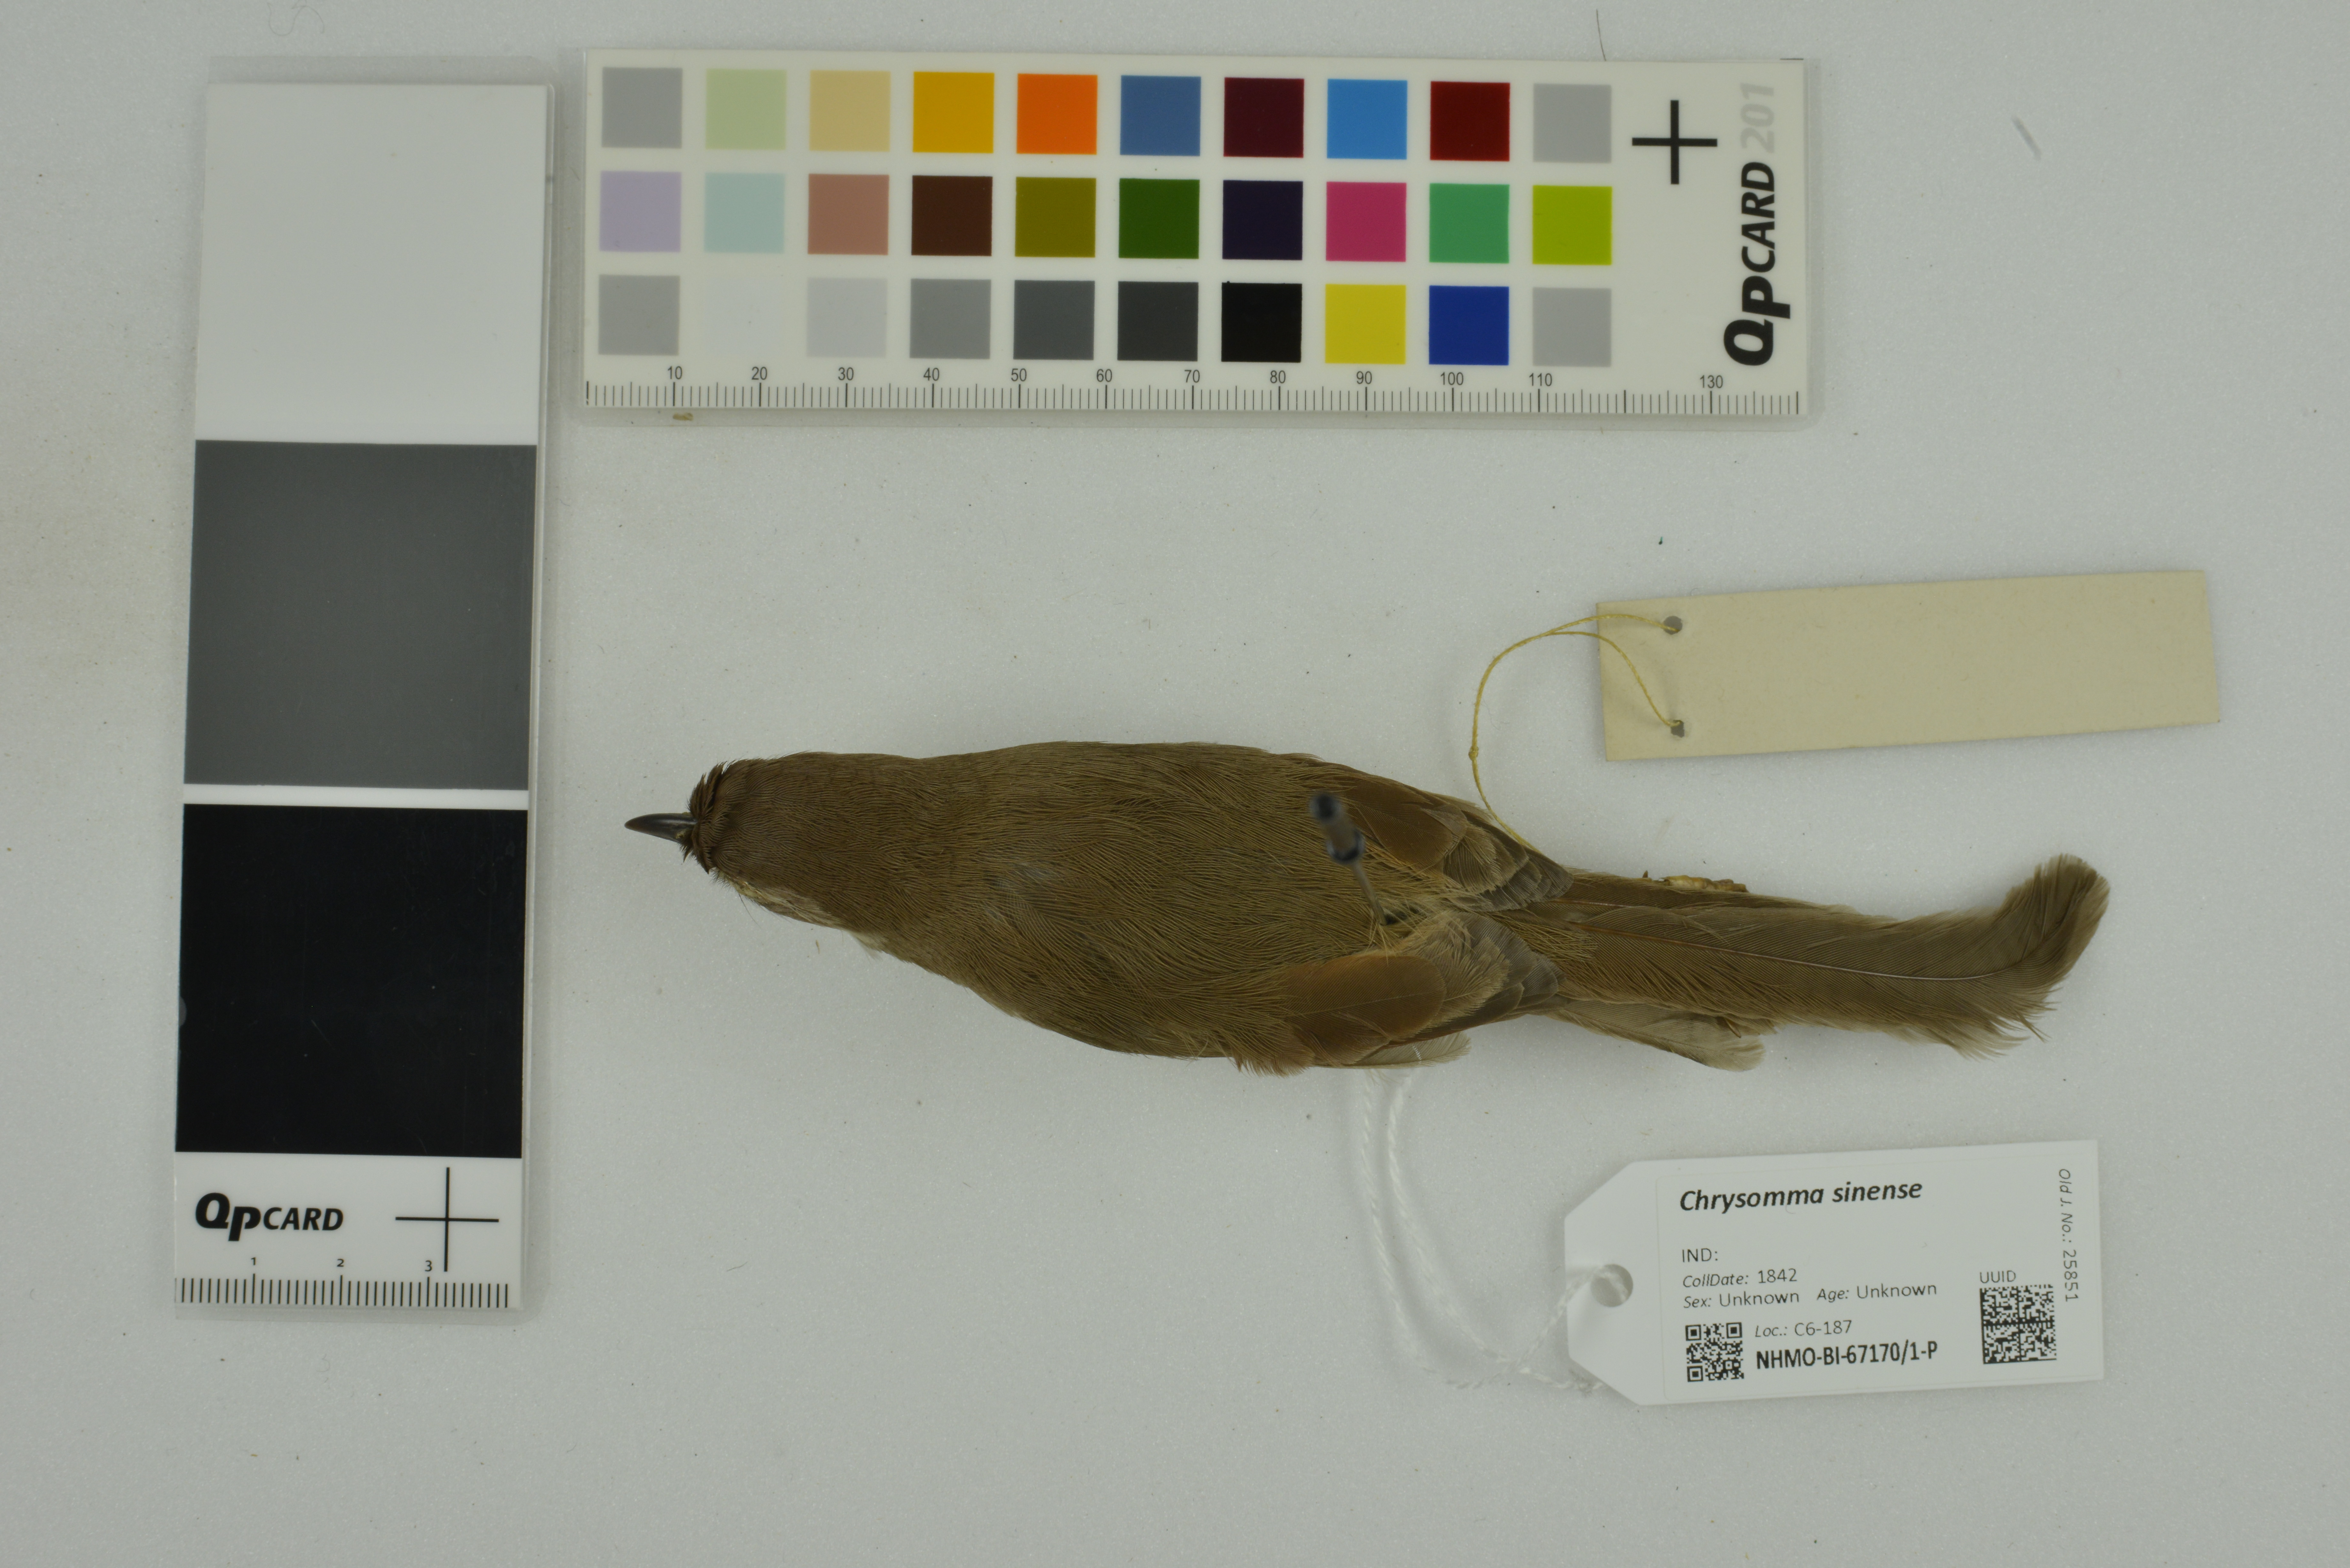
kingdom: Animalia
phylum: Chordata
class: Aves
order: Passeriformes
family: Sylviidae
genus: Chrysomma
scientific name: Chrysomma sinense
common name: Yellow-eyed babbler
